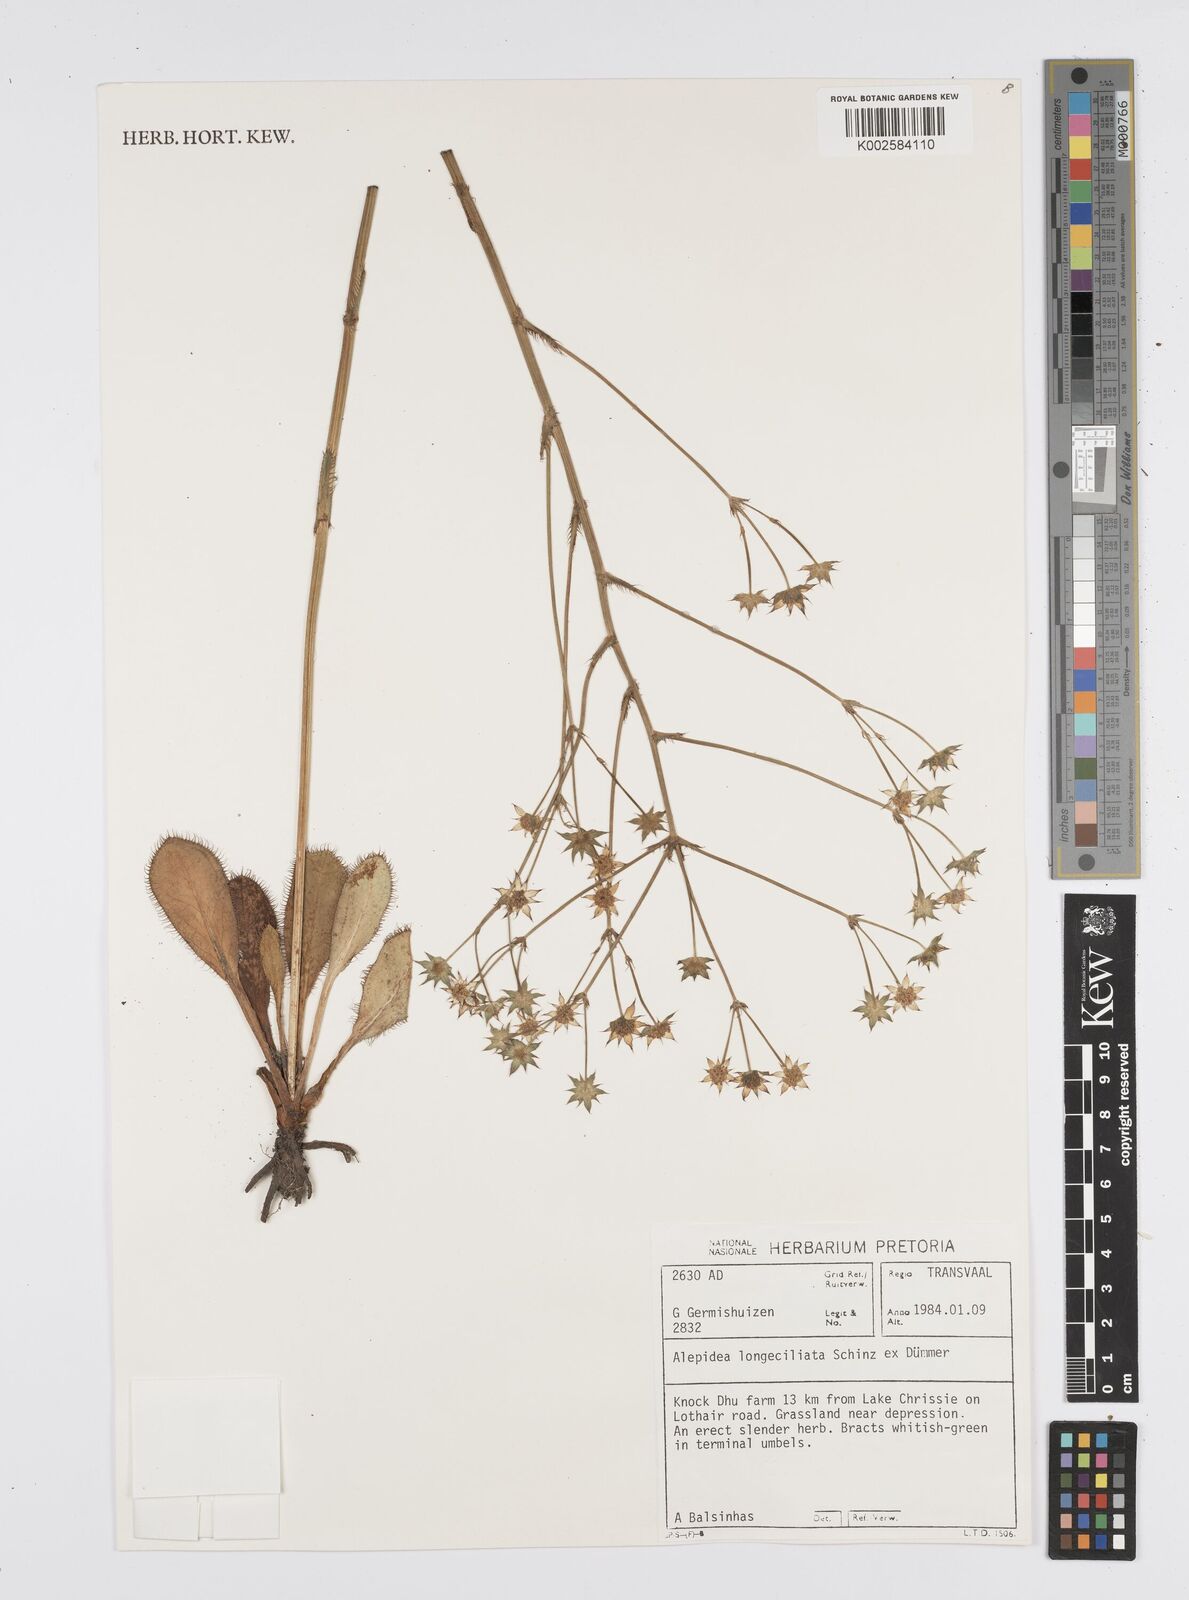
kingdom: Plantae
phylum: Tracheophyta
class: Magnoliopsida
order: Apiales
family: Apiaceae
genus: Alepidea
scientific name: Alepidea longeciliata
